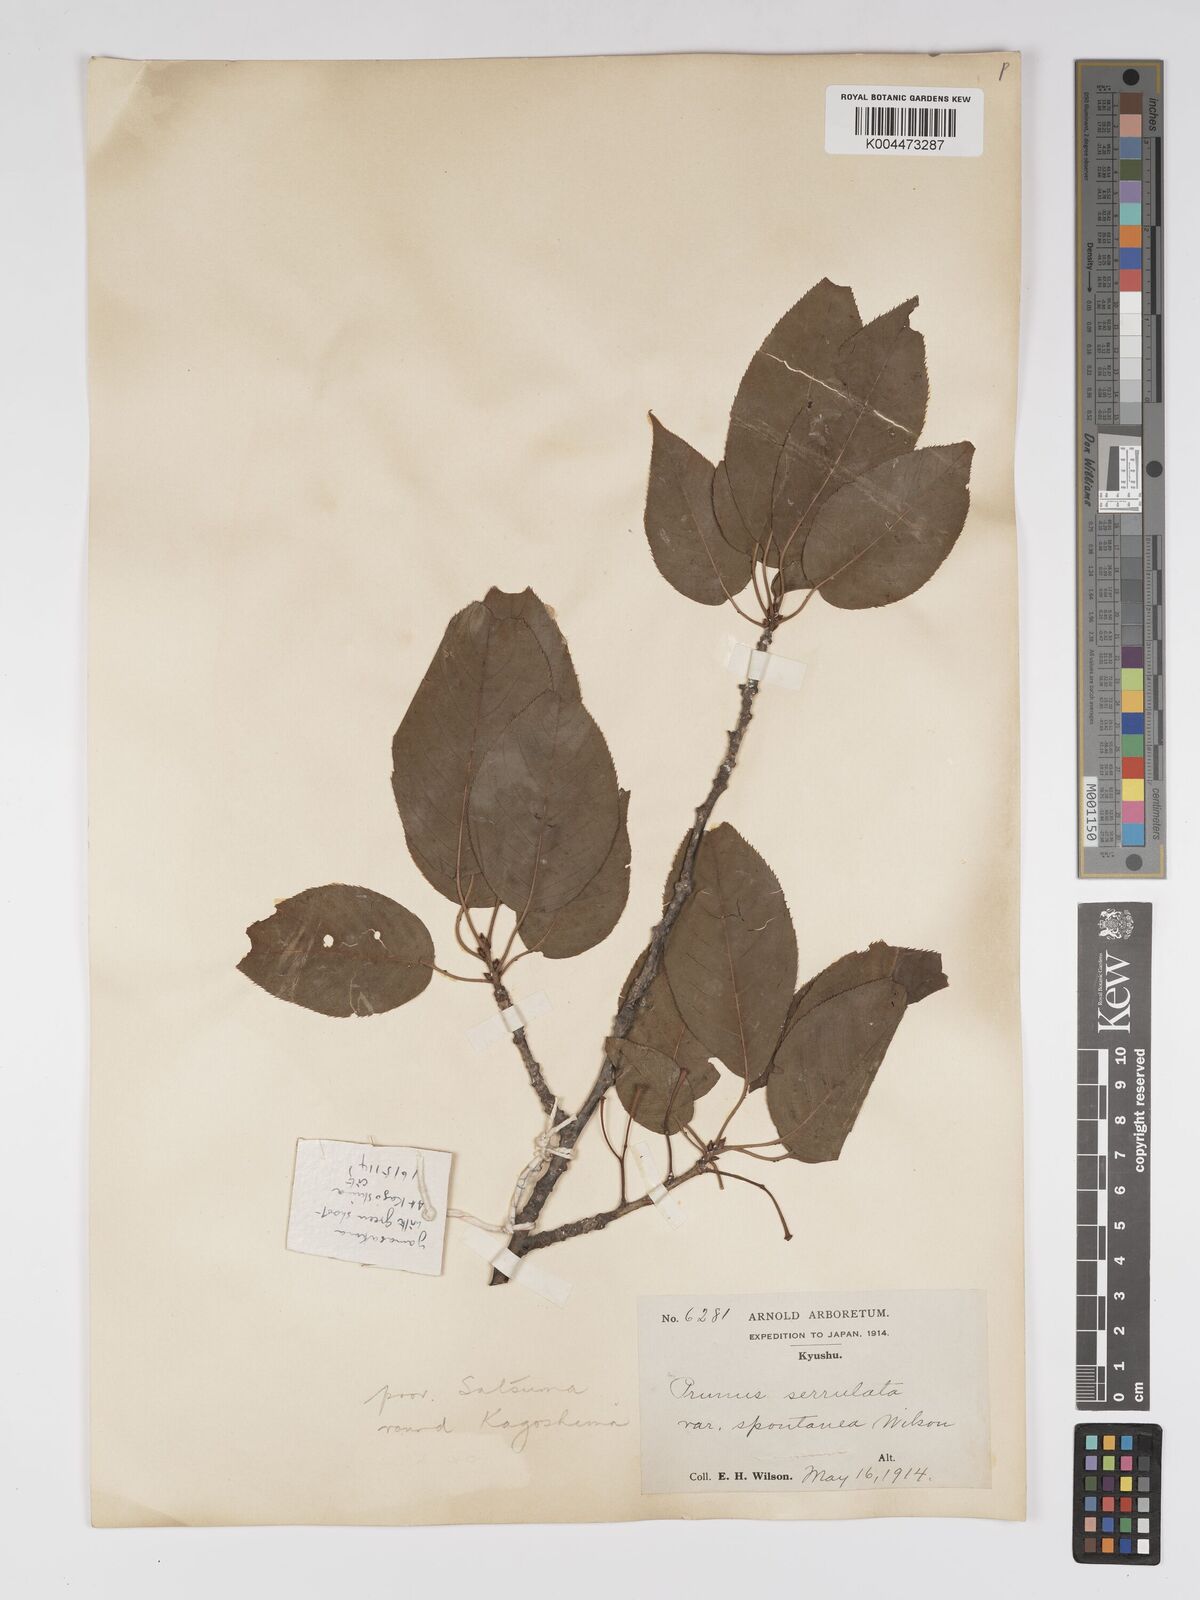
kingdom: Plantae
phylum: Tracheophyta
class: Magnoliopsida
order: Rosales
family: Rosaceae
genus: Prunus
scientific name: Prunus serrulata
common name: Japanese cherry
